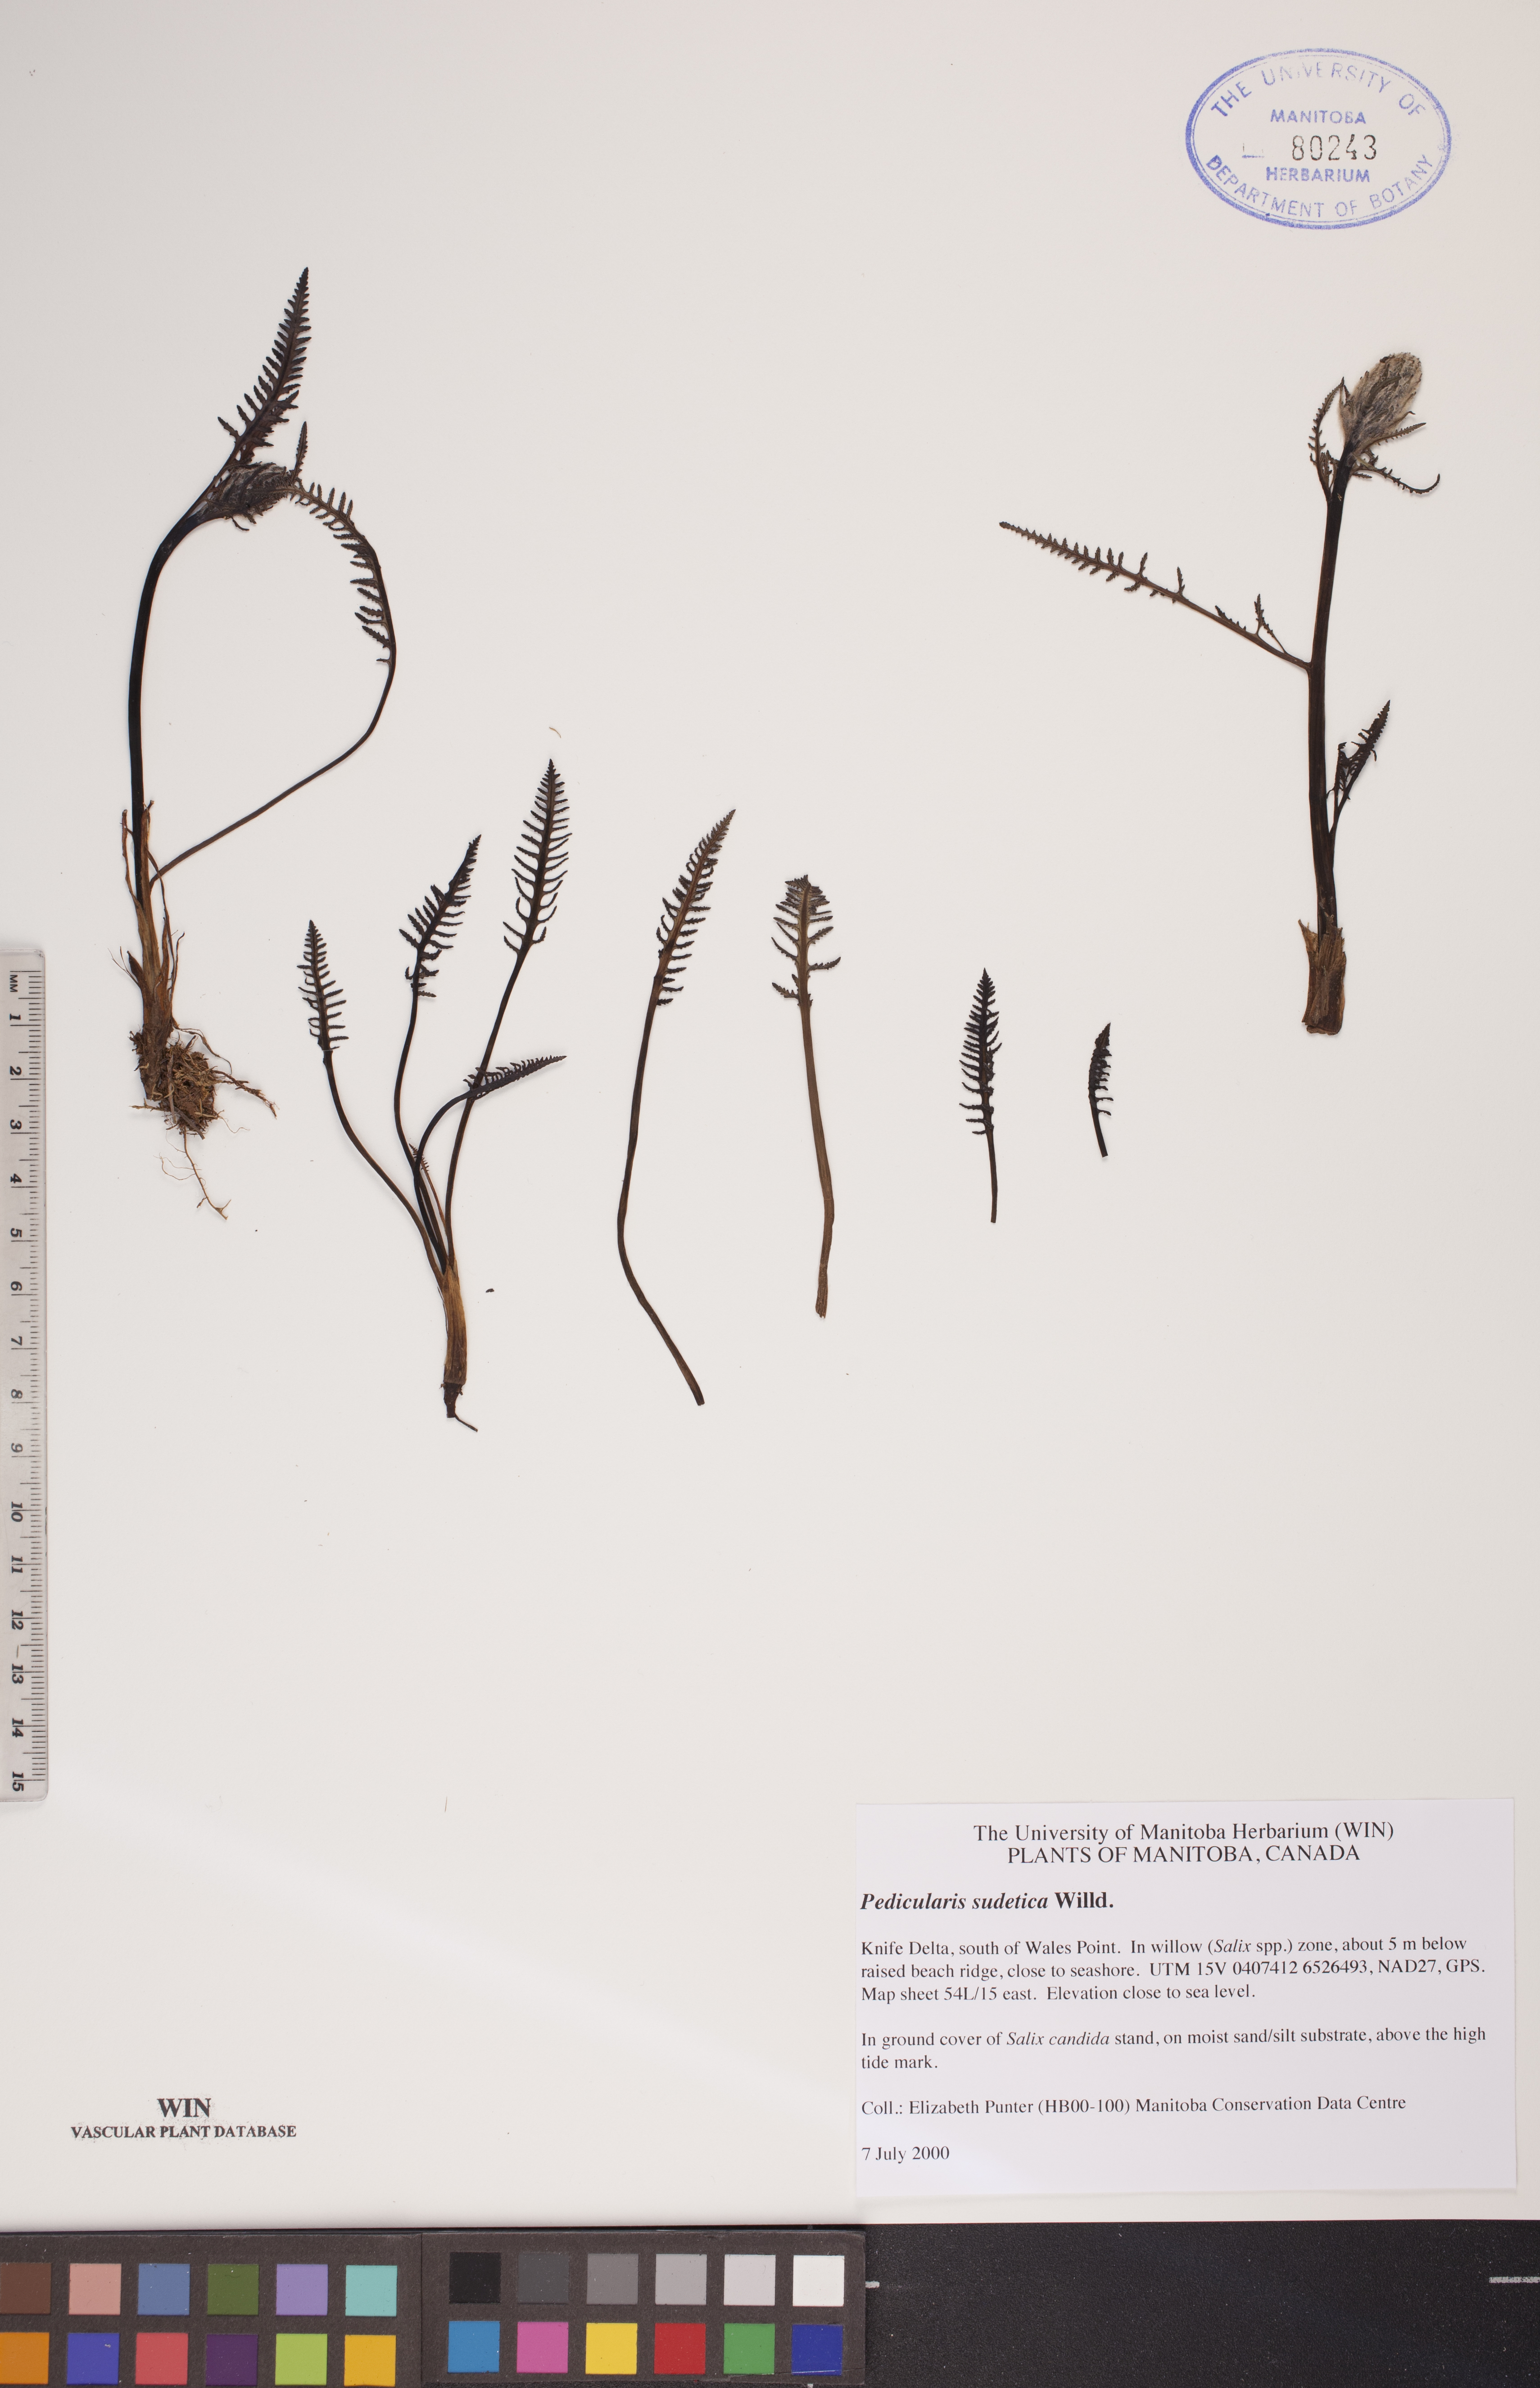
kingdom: Plantae
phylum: Tracheophyta
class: Magnoliopsida
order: Lamiales
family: Orobanchaceae
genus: Pedicularis
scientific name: Pedicularis sudetica
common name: Sudeten lousewort
